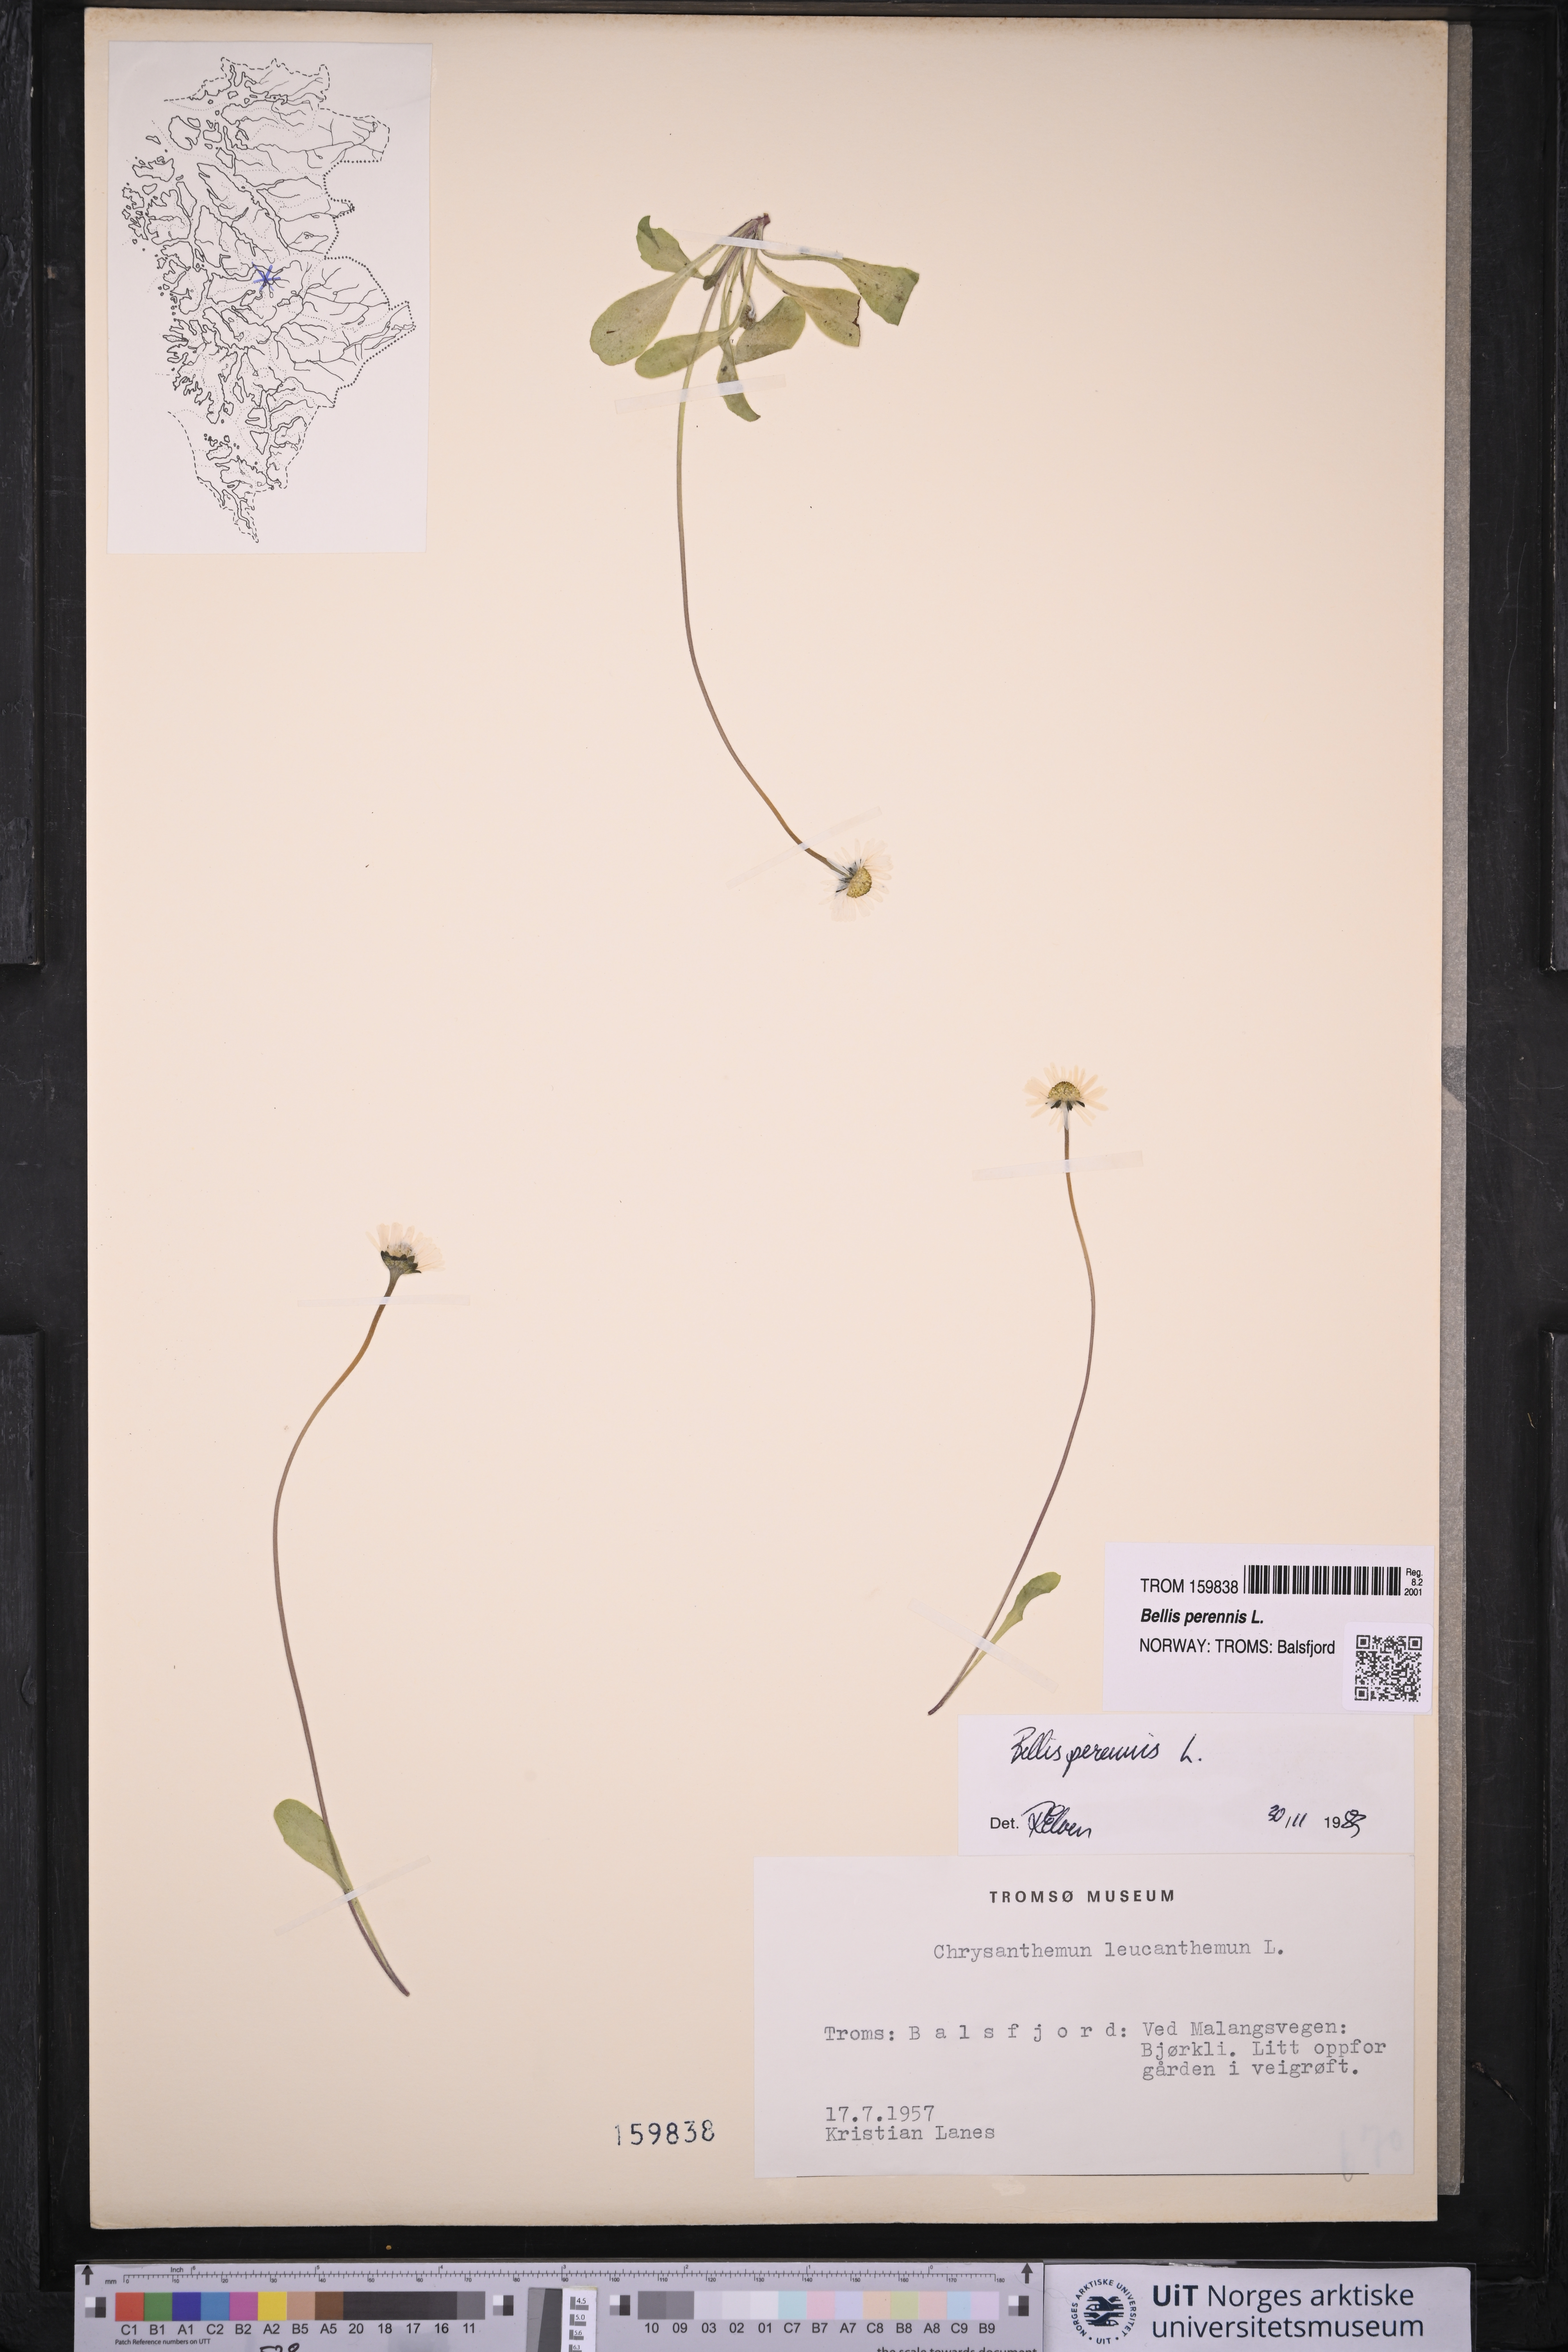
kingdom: Plantae
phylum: Tracheophyta
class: Magnoliopsida
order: Asterales
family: Asteraceae
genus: Bellis
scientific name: Bellis perennis
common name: Lawndaisy
